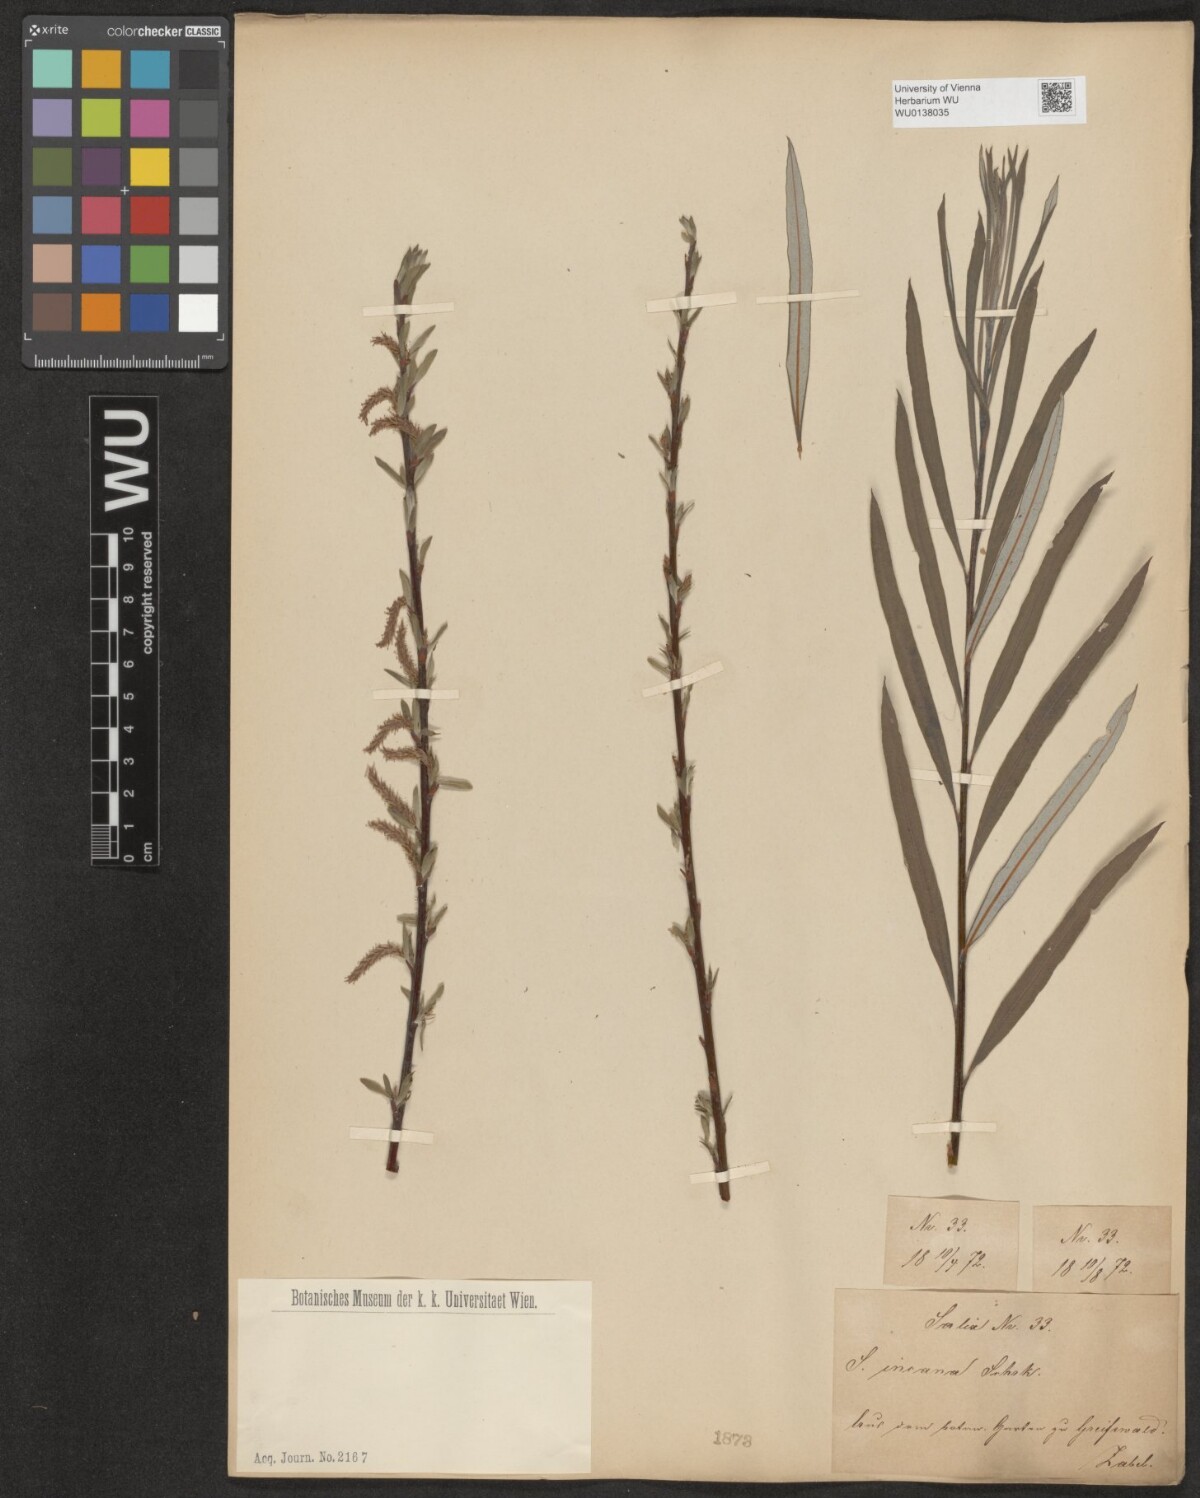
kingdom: Plantae
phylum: Tracheophyta
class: Magnoliopsida
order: Malpighiales
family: Salicaceae
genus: Salix
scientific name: Salix eleagnos
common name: Elaeagnus willow
